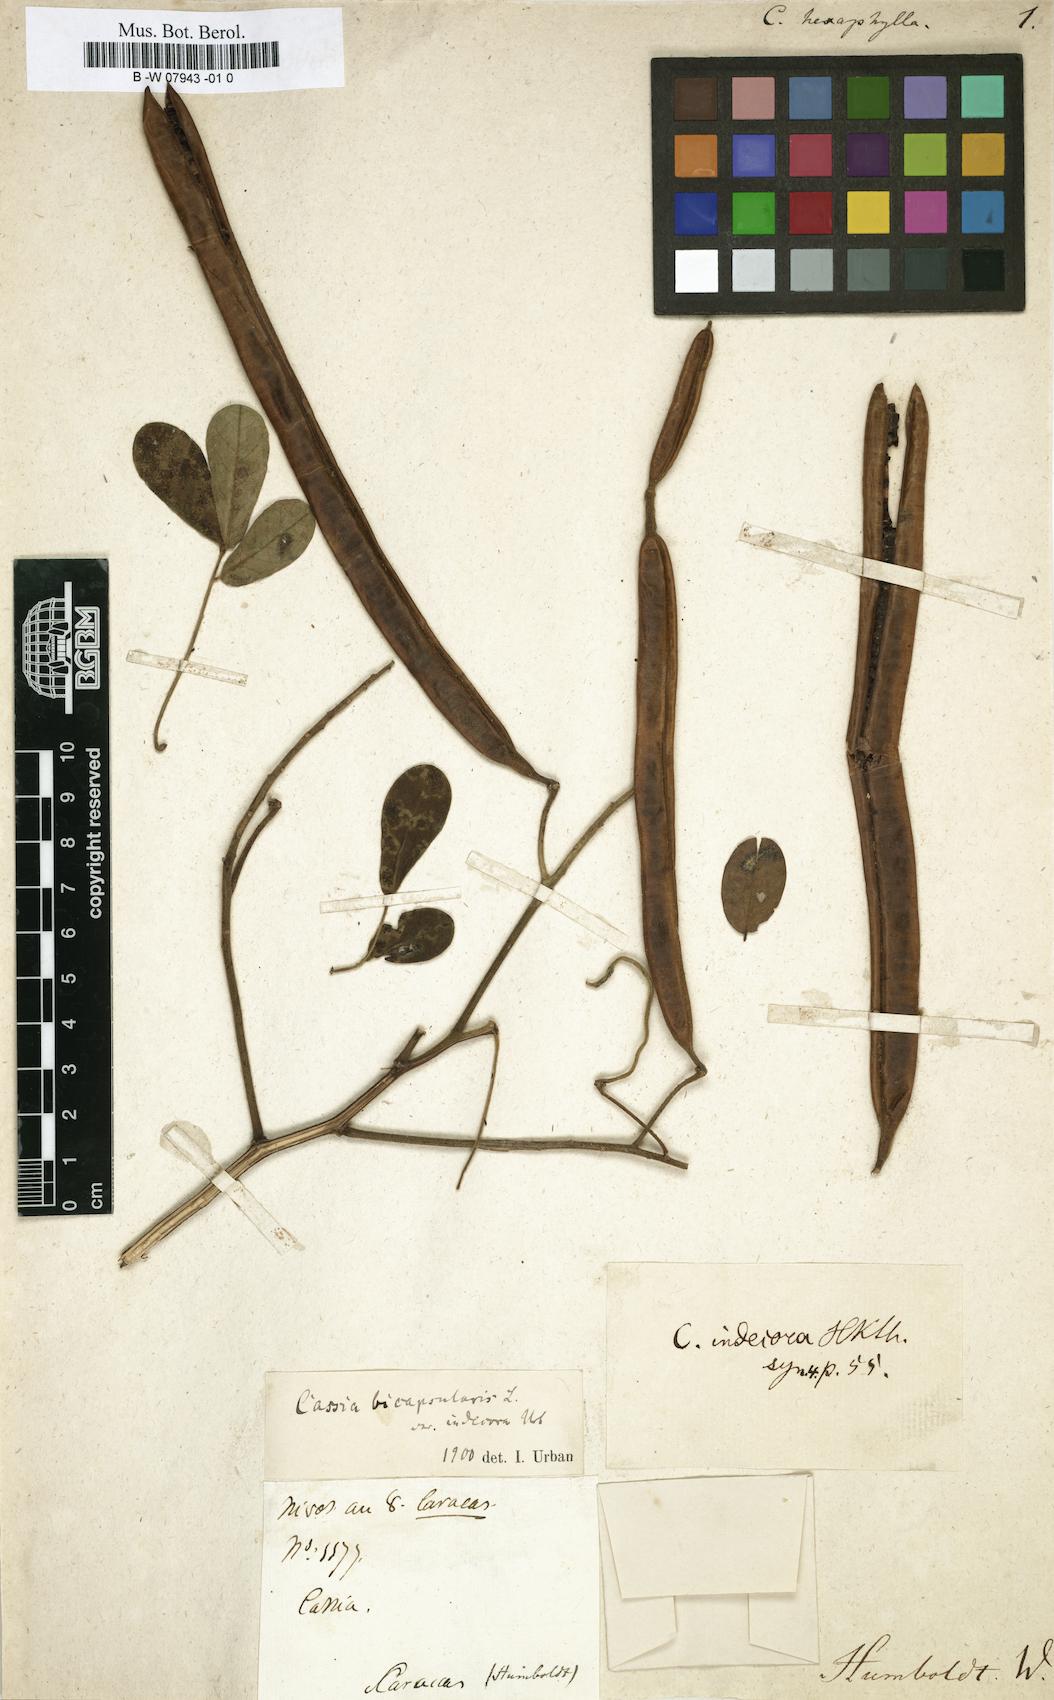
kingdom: Plantae
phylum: Tracheophyta
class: Magnoliopsida
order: Fabales
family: Fabaceae
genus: Cassia
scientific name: Cassia
